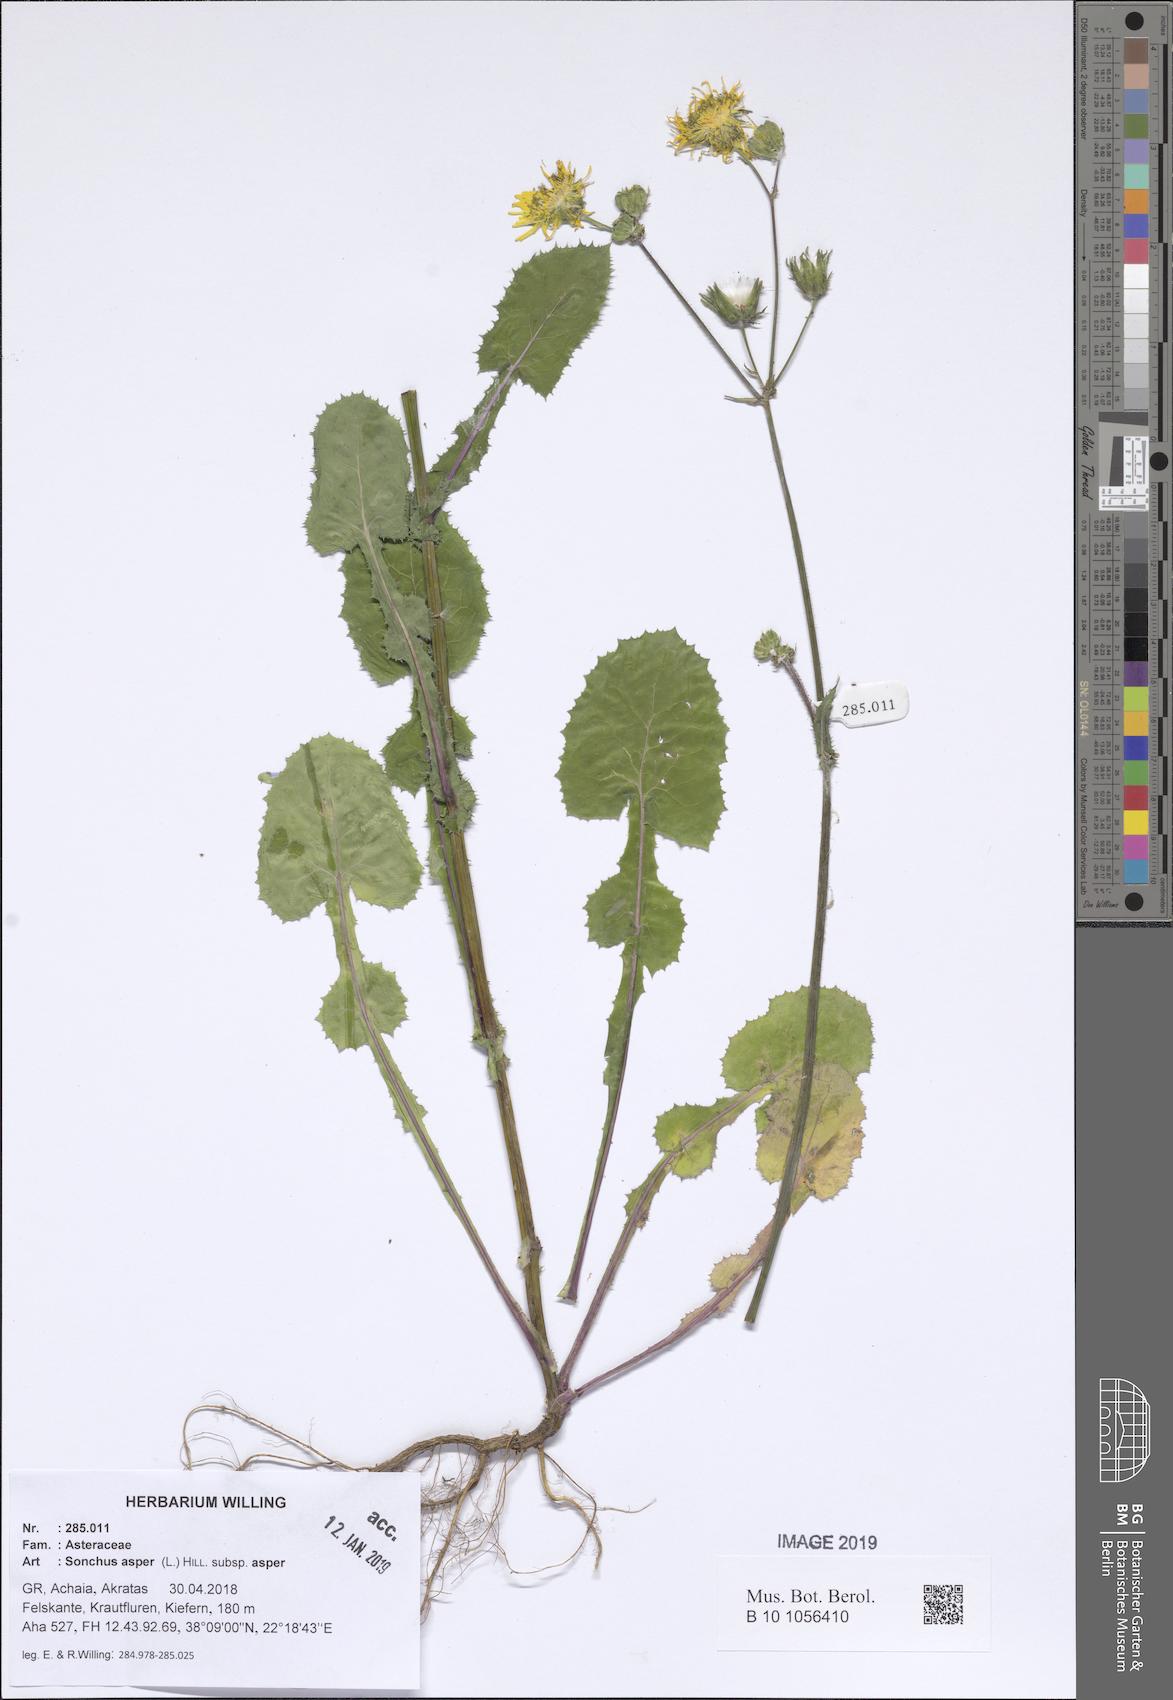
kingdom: Plantae
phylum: Tracheophyta
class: Magnoliopsida
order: Asterales
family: Asteraceae
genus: Sonchus
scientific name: Sonchus asper
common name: Prickly sow-thistle
